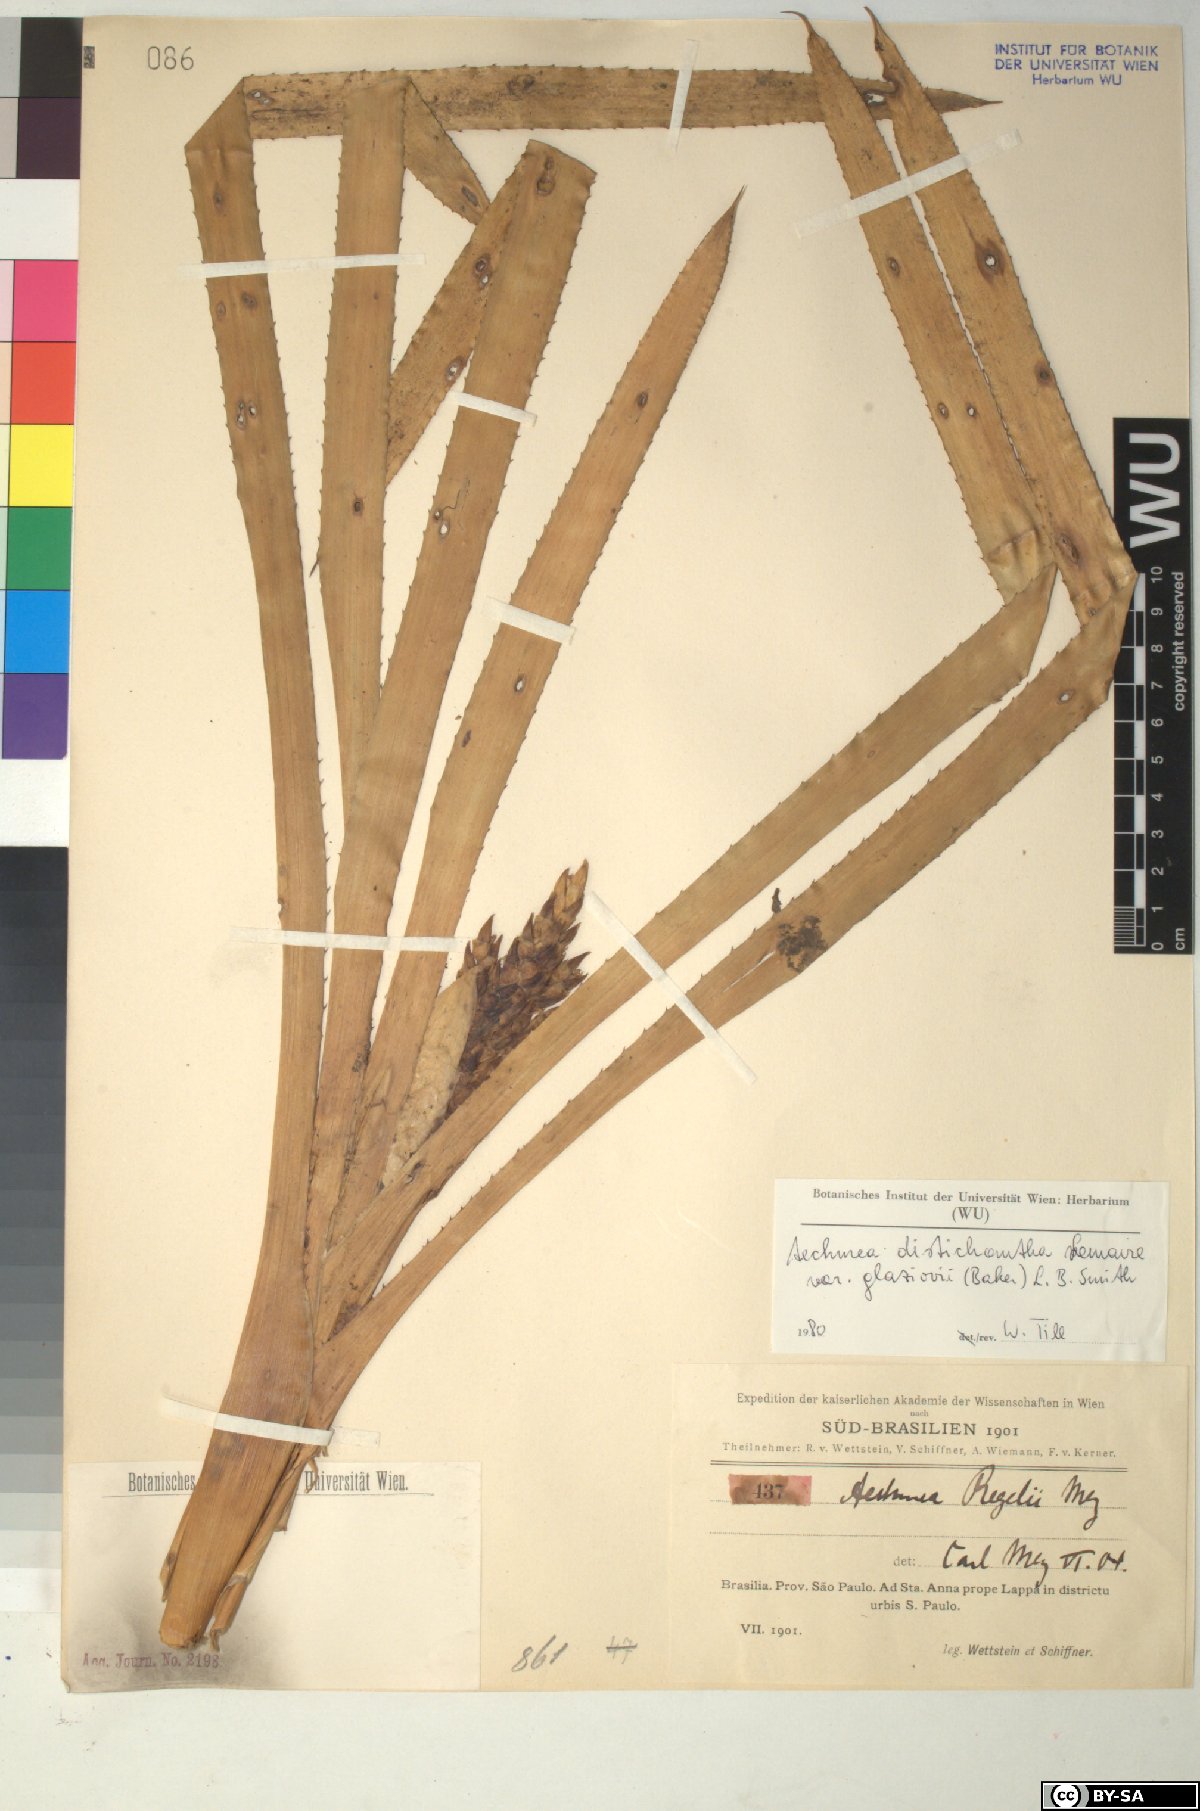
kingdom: Plantae
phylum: Tracheophyta
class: Liliopsida
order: Poales
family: Bromeliaceae
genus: Aechmea
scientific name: Aechmea
